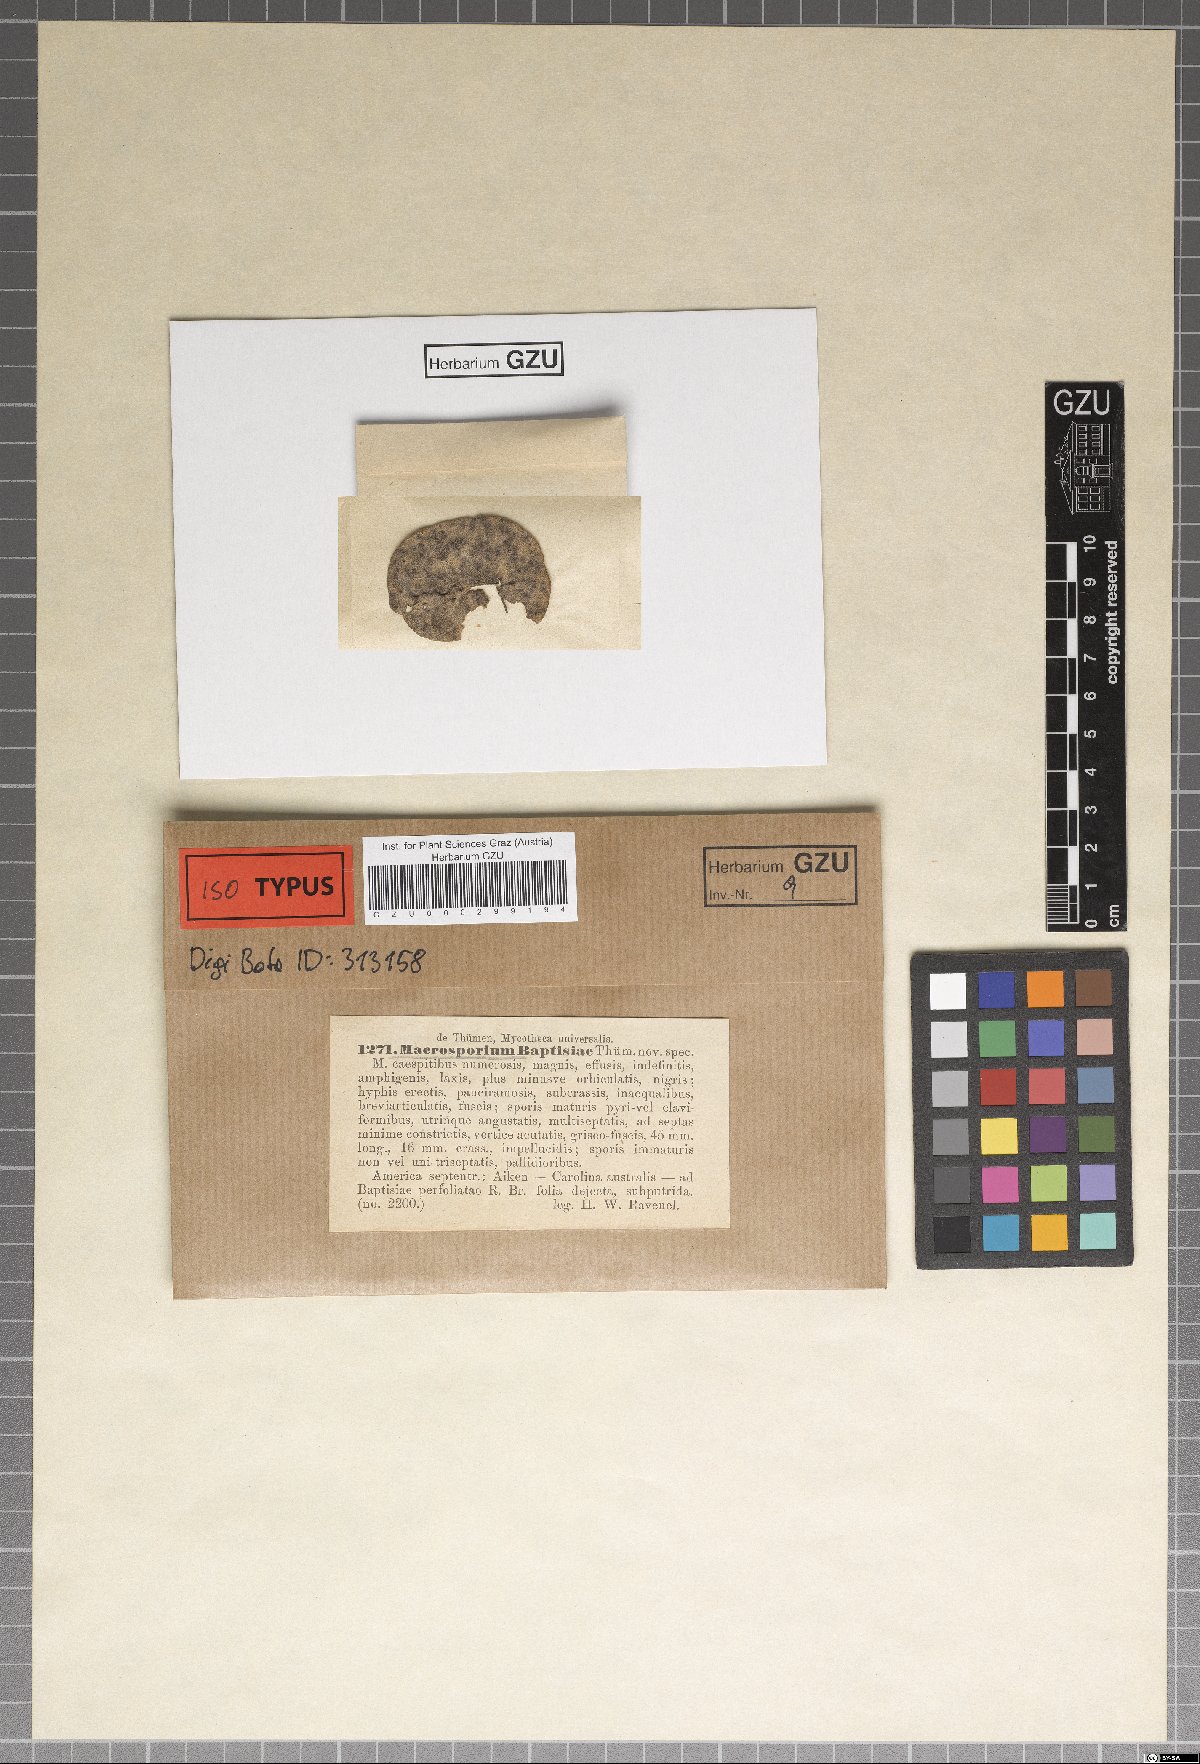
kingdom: Fungi
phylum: Ascomycota
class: Dothideomycetes
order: Pleosporales
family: Pleosporaceae
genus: Macrosporium
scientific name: Macrosporium
